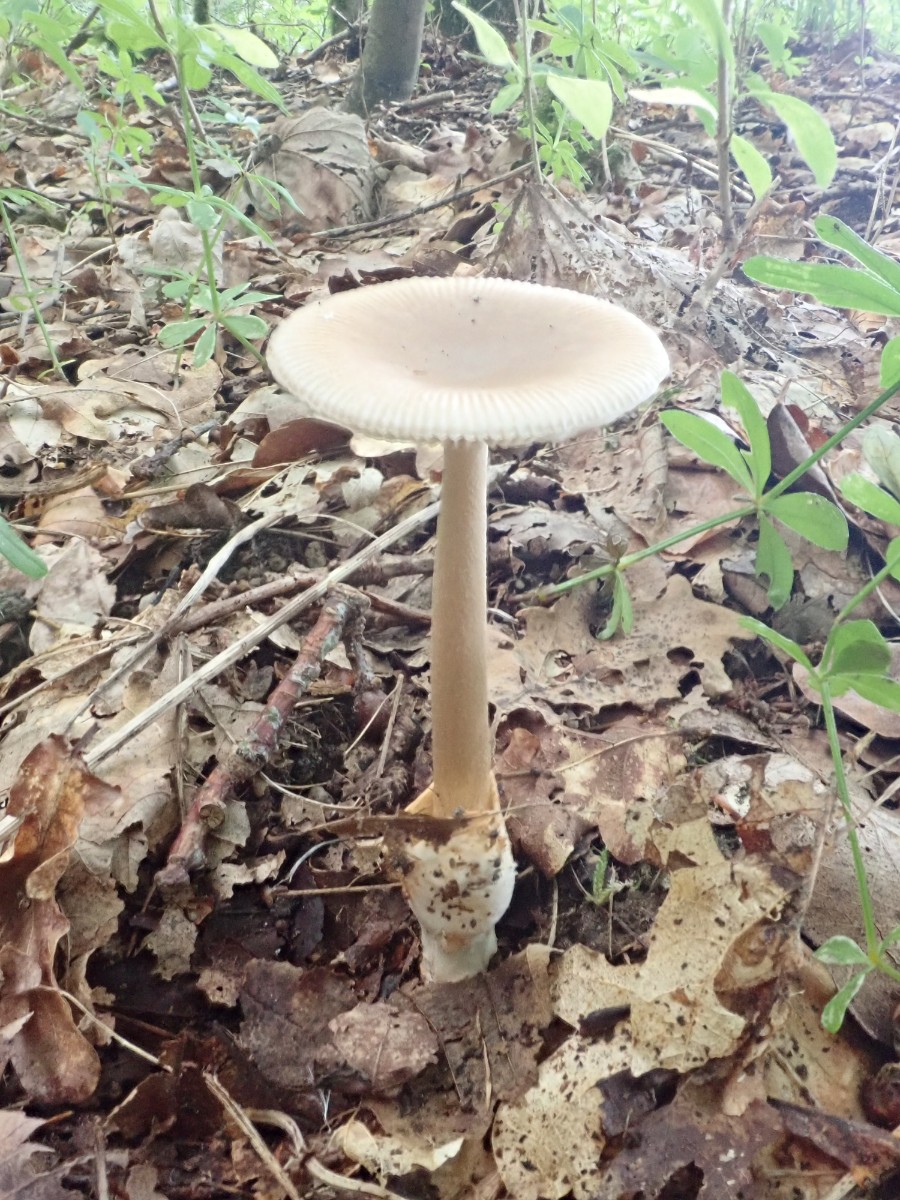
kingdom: Fungi
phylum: Basidiomycota
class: Agaricomycetes
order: Agaricales
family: Amanitaceae
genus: Amanita
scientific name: Amanita fulva
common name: brun kam-fluesvamp
